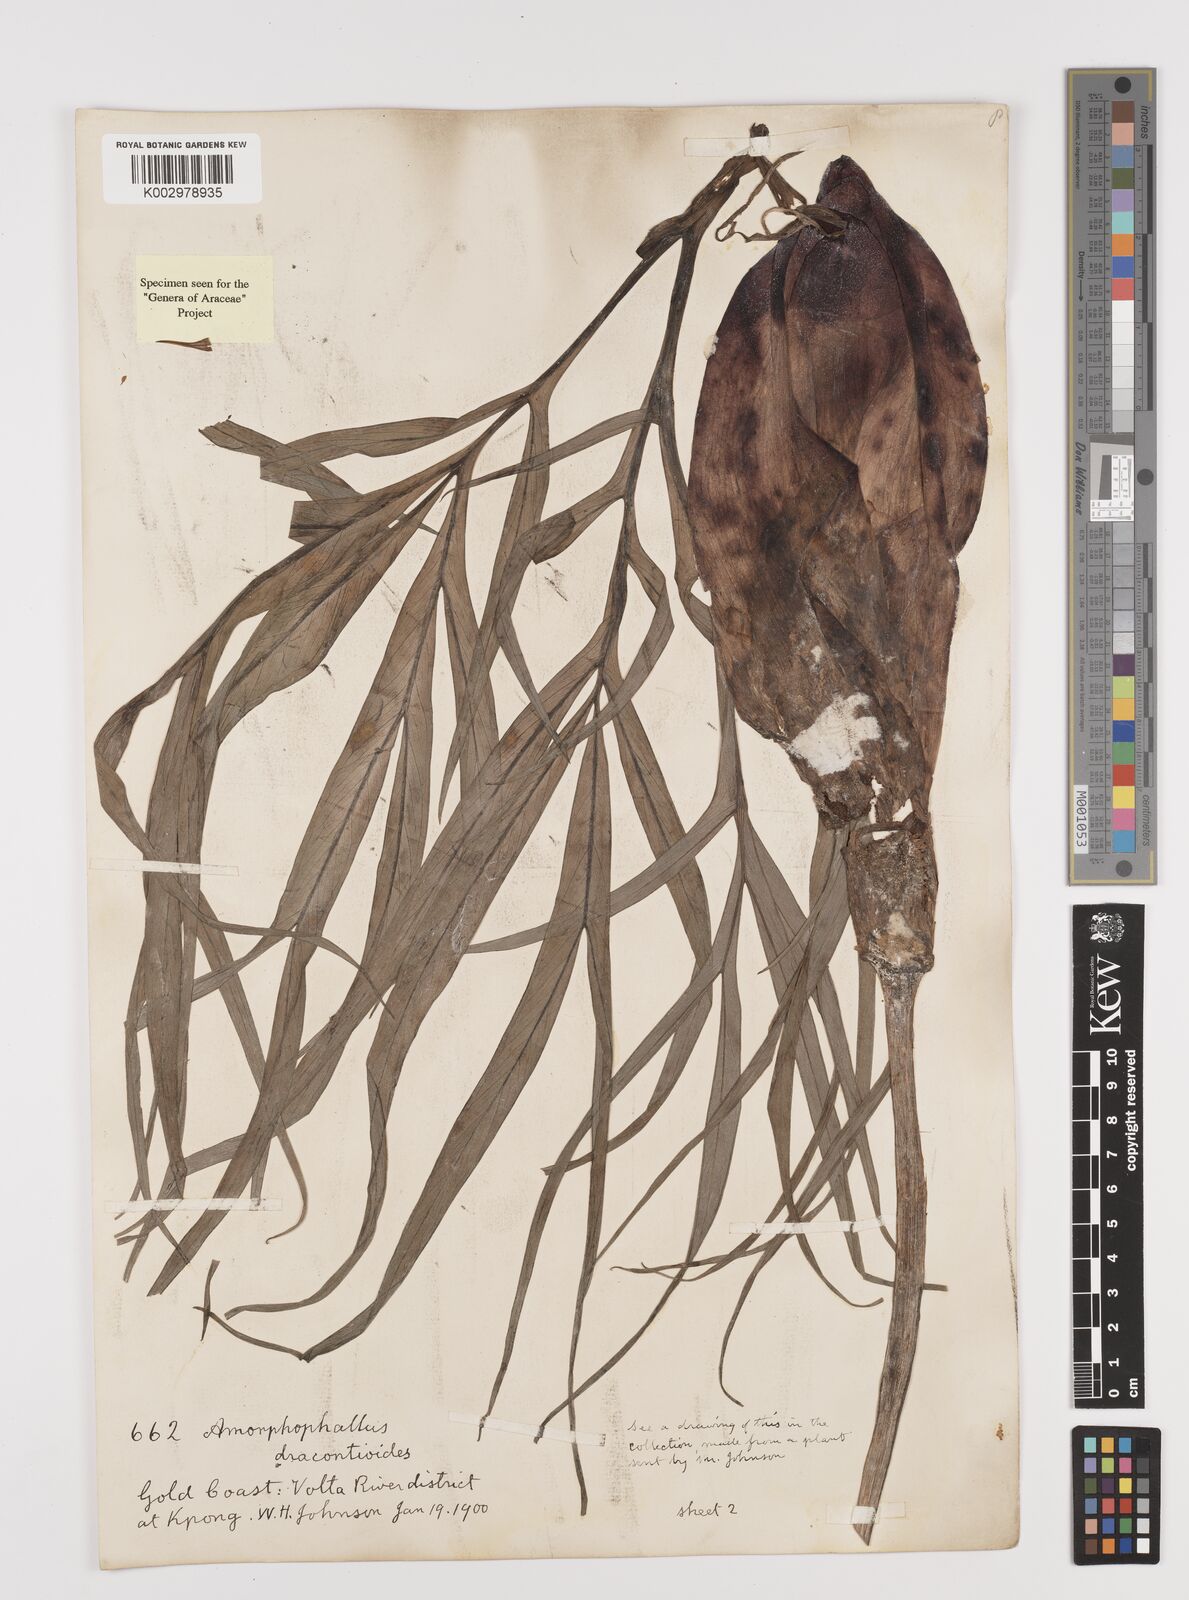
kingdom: Plantae
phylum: Tracheophyta
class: Liliopsida
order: Alismatales
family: Araceae
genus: Amorphophallus
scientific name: Amorphophallus dracontioides
